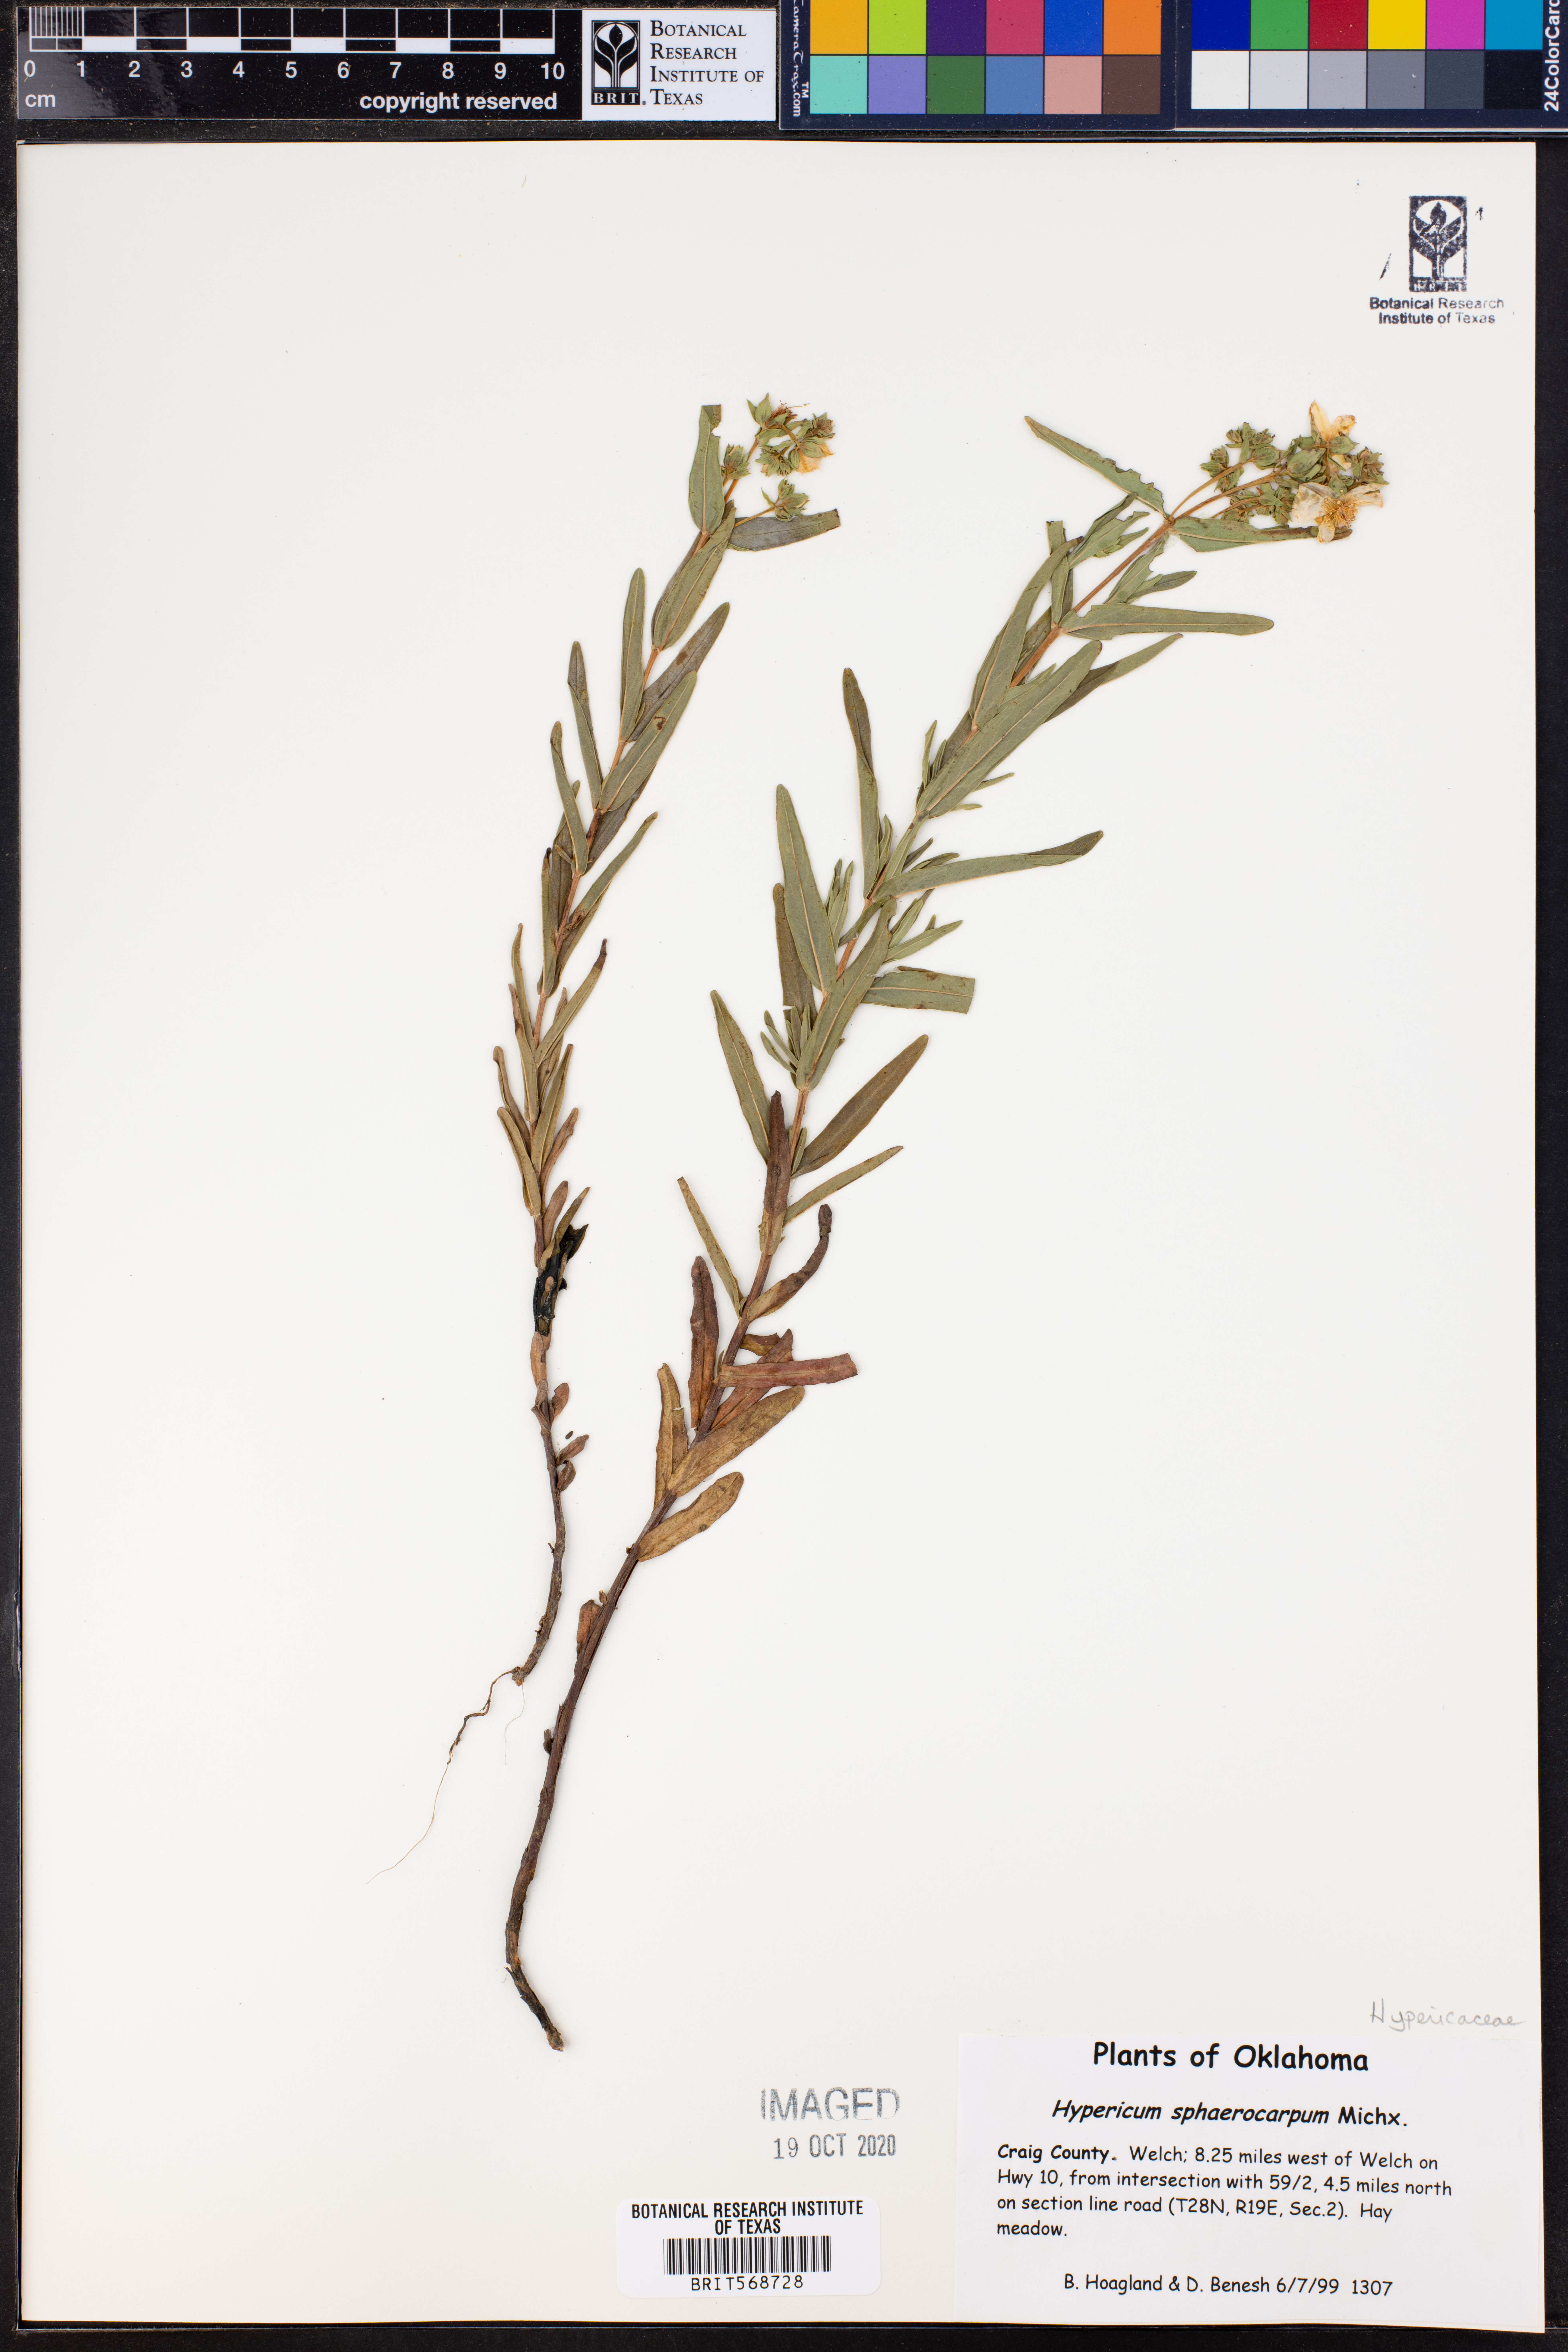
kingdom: Plantae
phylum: Tracheophyta
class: Magnoliopsida
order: Malpighiales
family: Hypericaceae
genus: Hypericum
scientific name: Hypericum sphaerocarpum
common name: Round-fruited st. john's-wort
